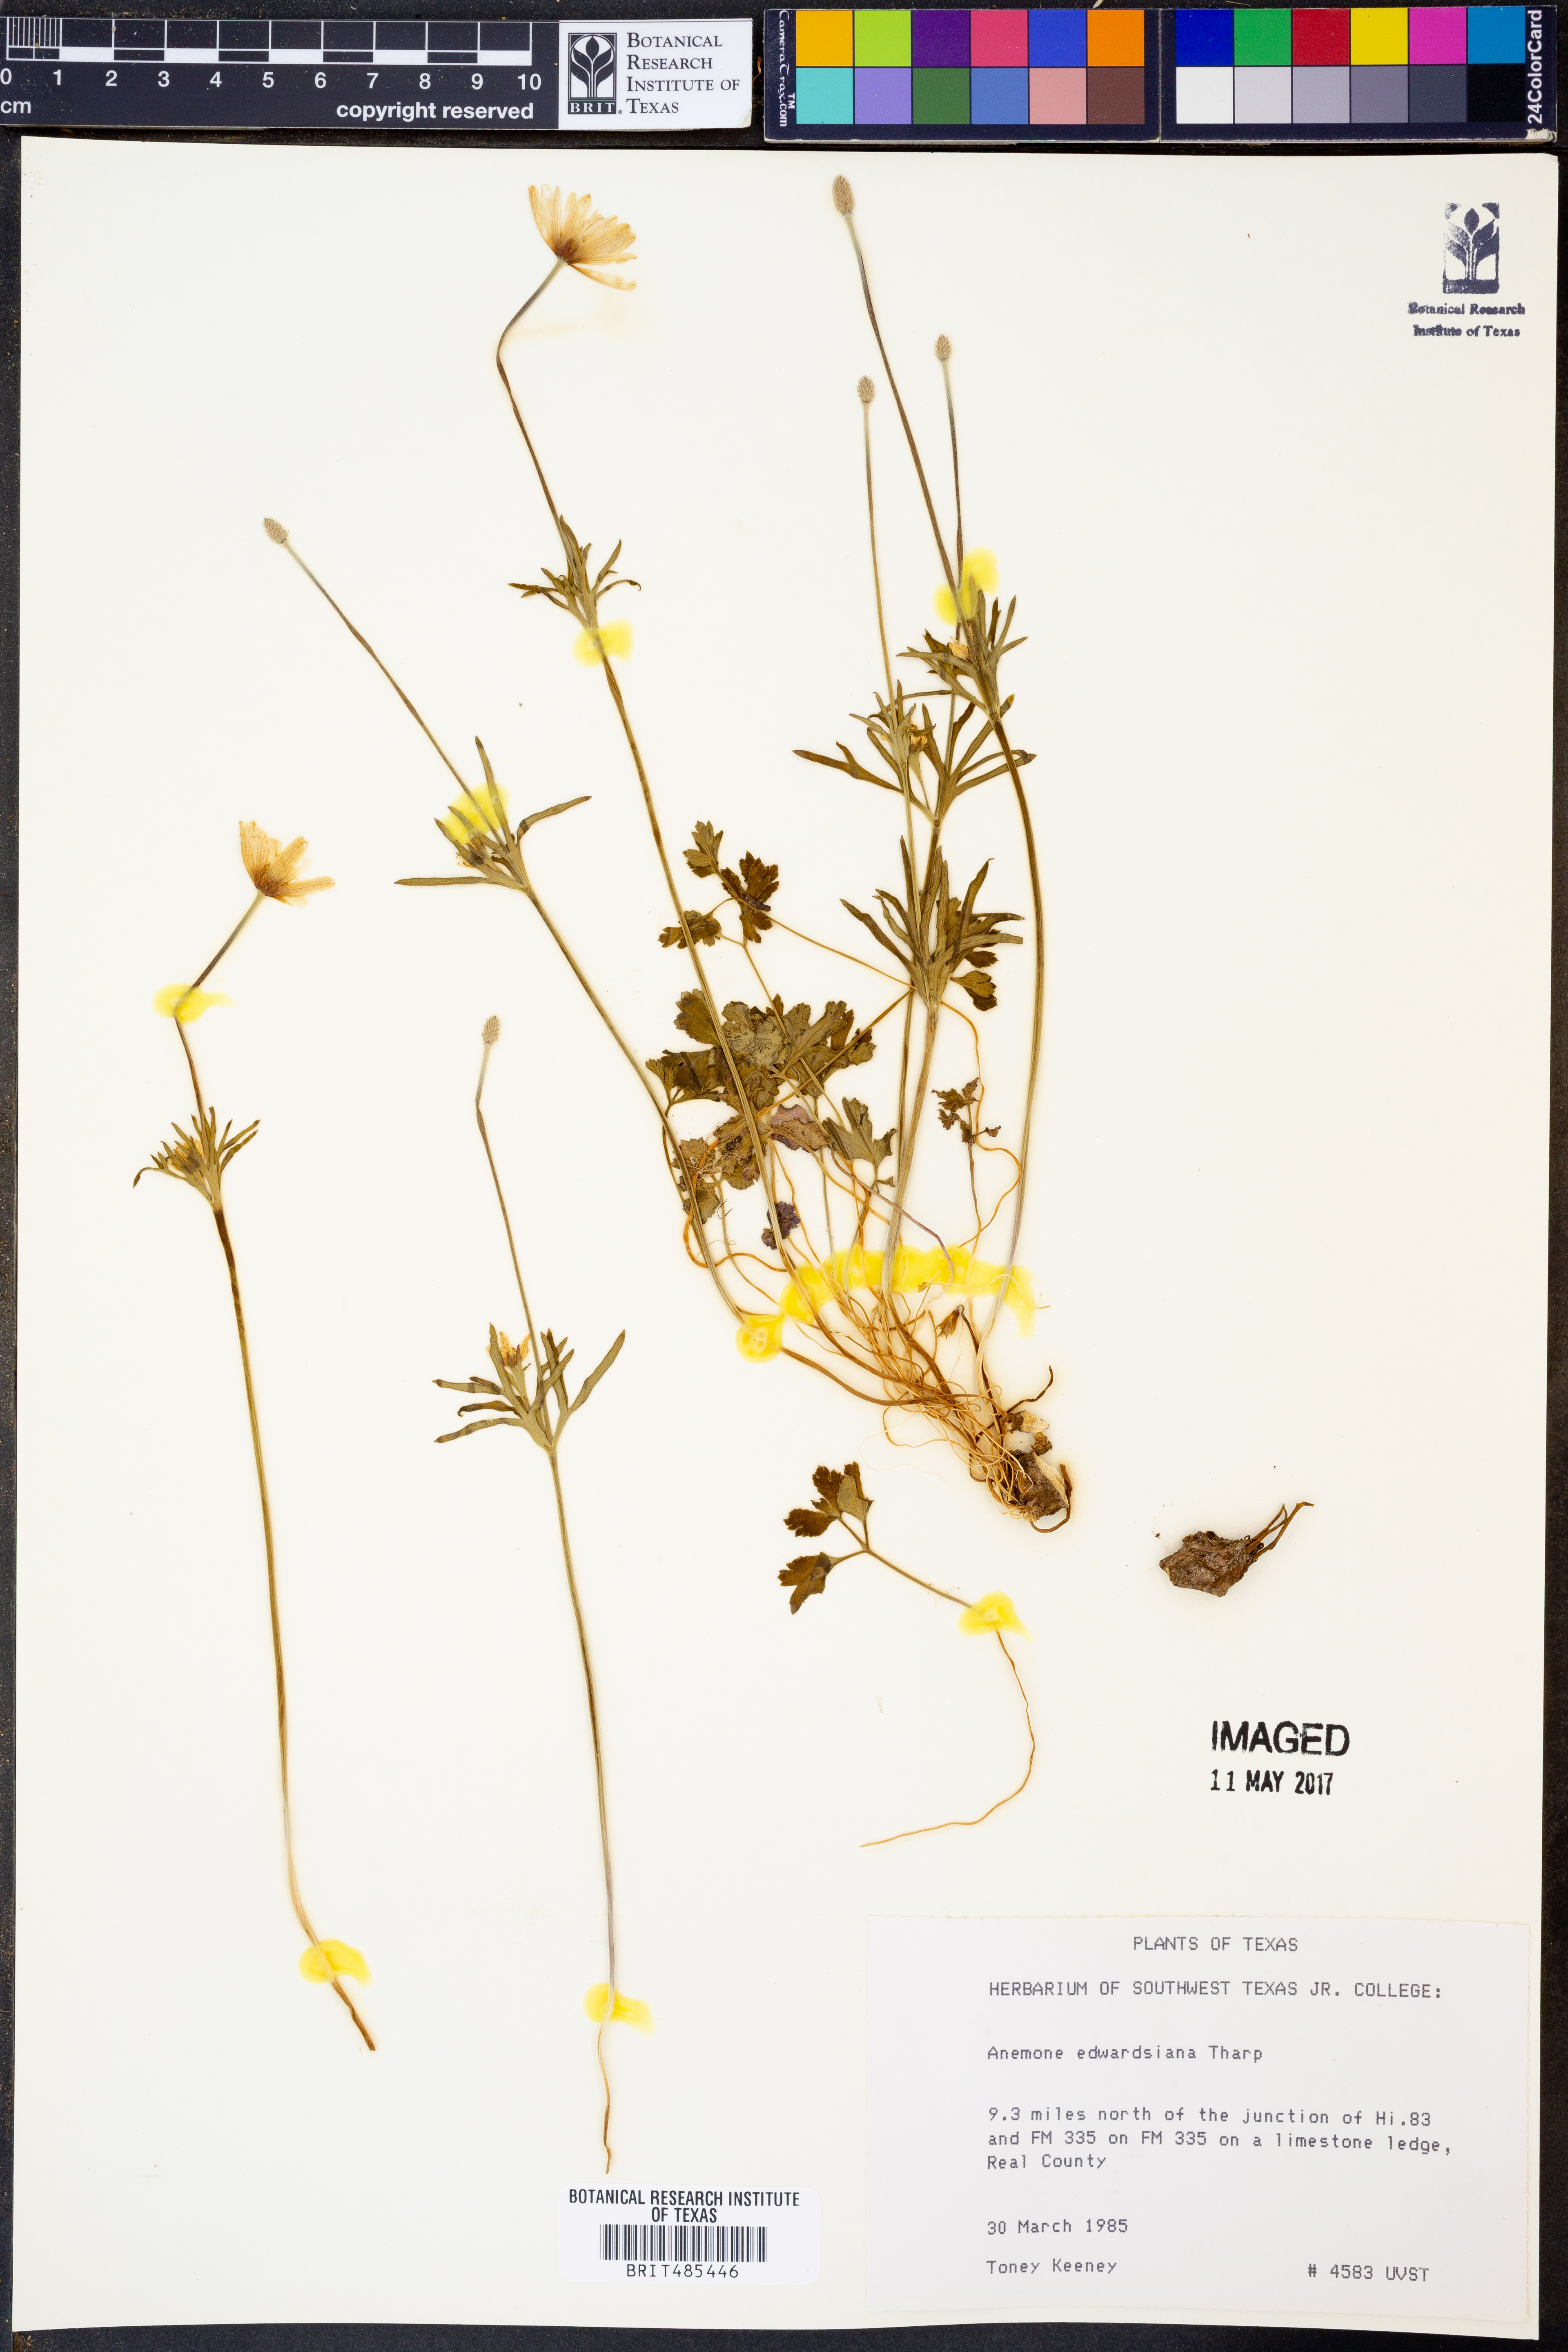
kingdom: Plantae
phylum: Tracheophyta
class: Magnoliopsida
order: Ranunculales
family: Ranunculaceae
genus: Anemone
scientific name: Anemone edwardsiana
